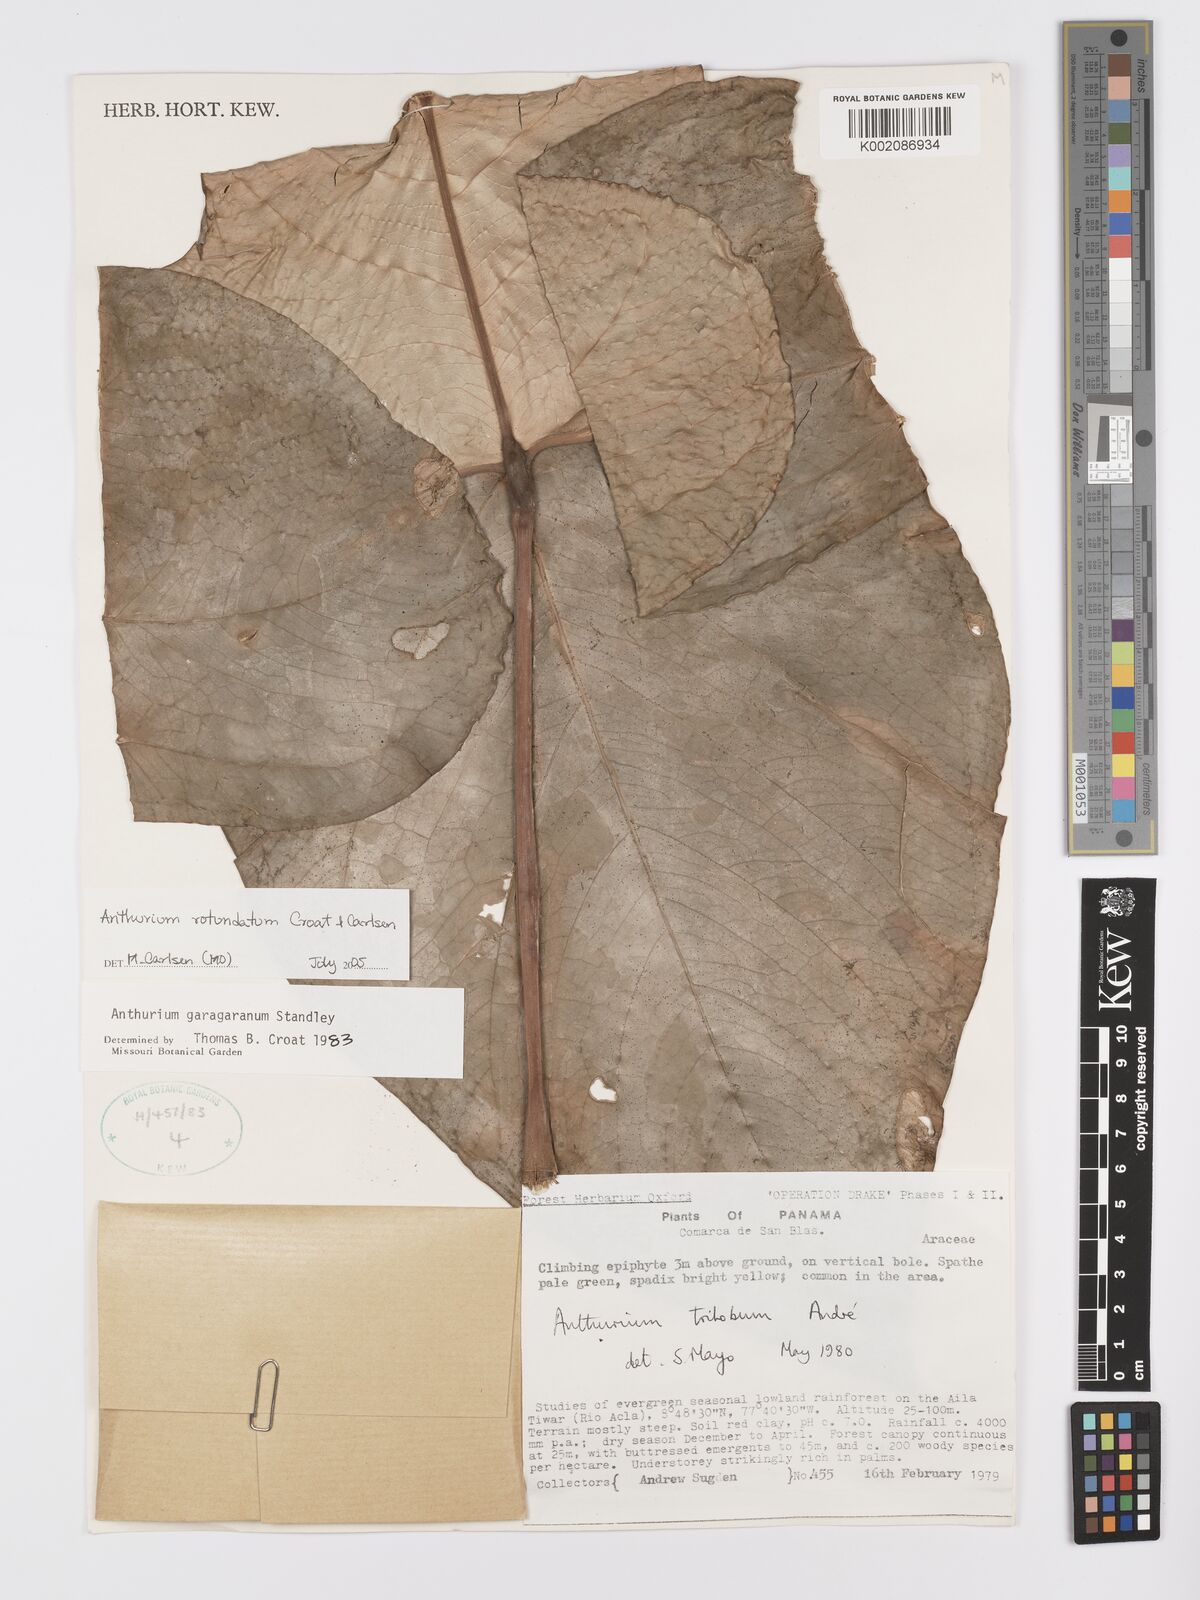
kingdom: Plantae
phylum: Tracheophyta
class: Liliopsida
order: Alismatales
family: Araceae
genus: Anthurium
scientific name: Anthurium rotundatum
